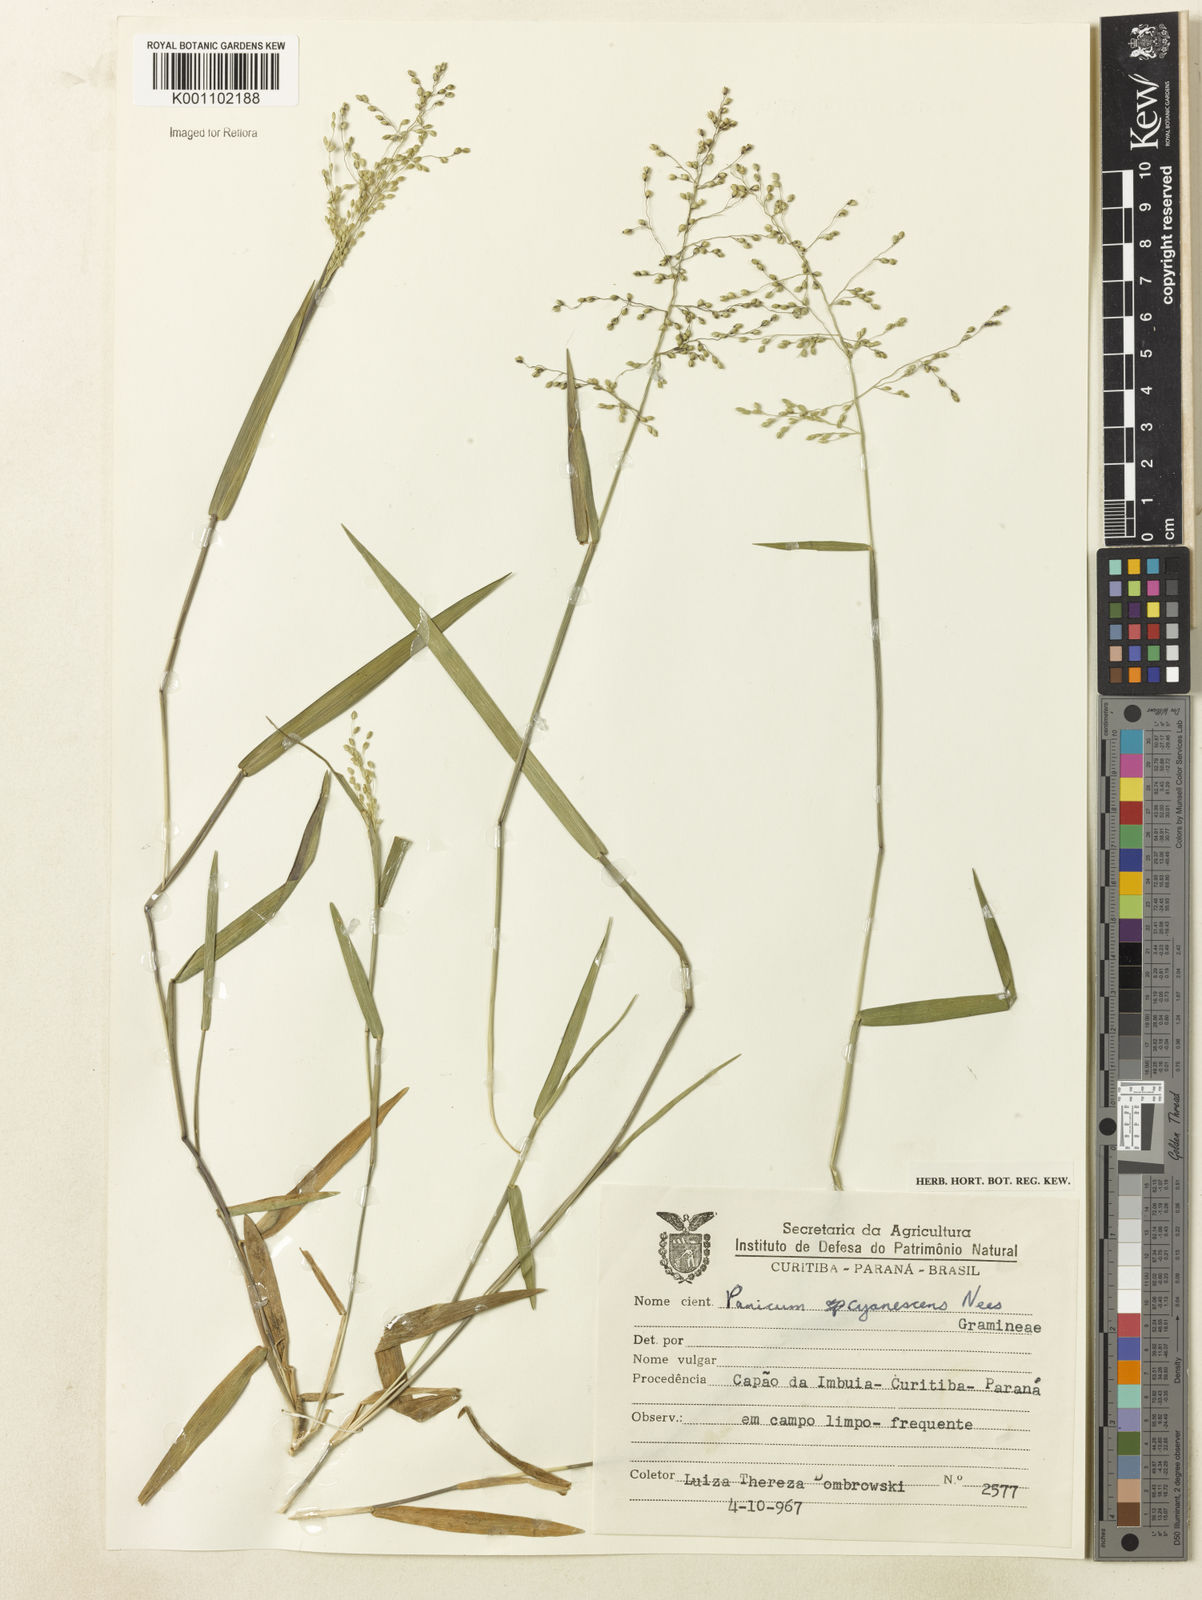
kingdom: Plantae
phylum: Tracheophyta
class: Liliopsida
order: Poales
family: Poaceae
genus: Dichanthelium
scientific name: Dichanthelium sabulorum
